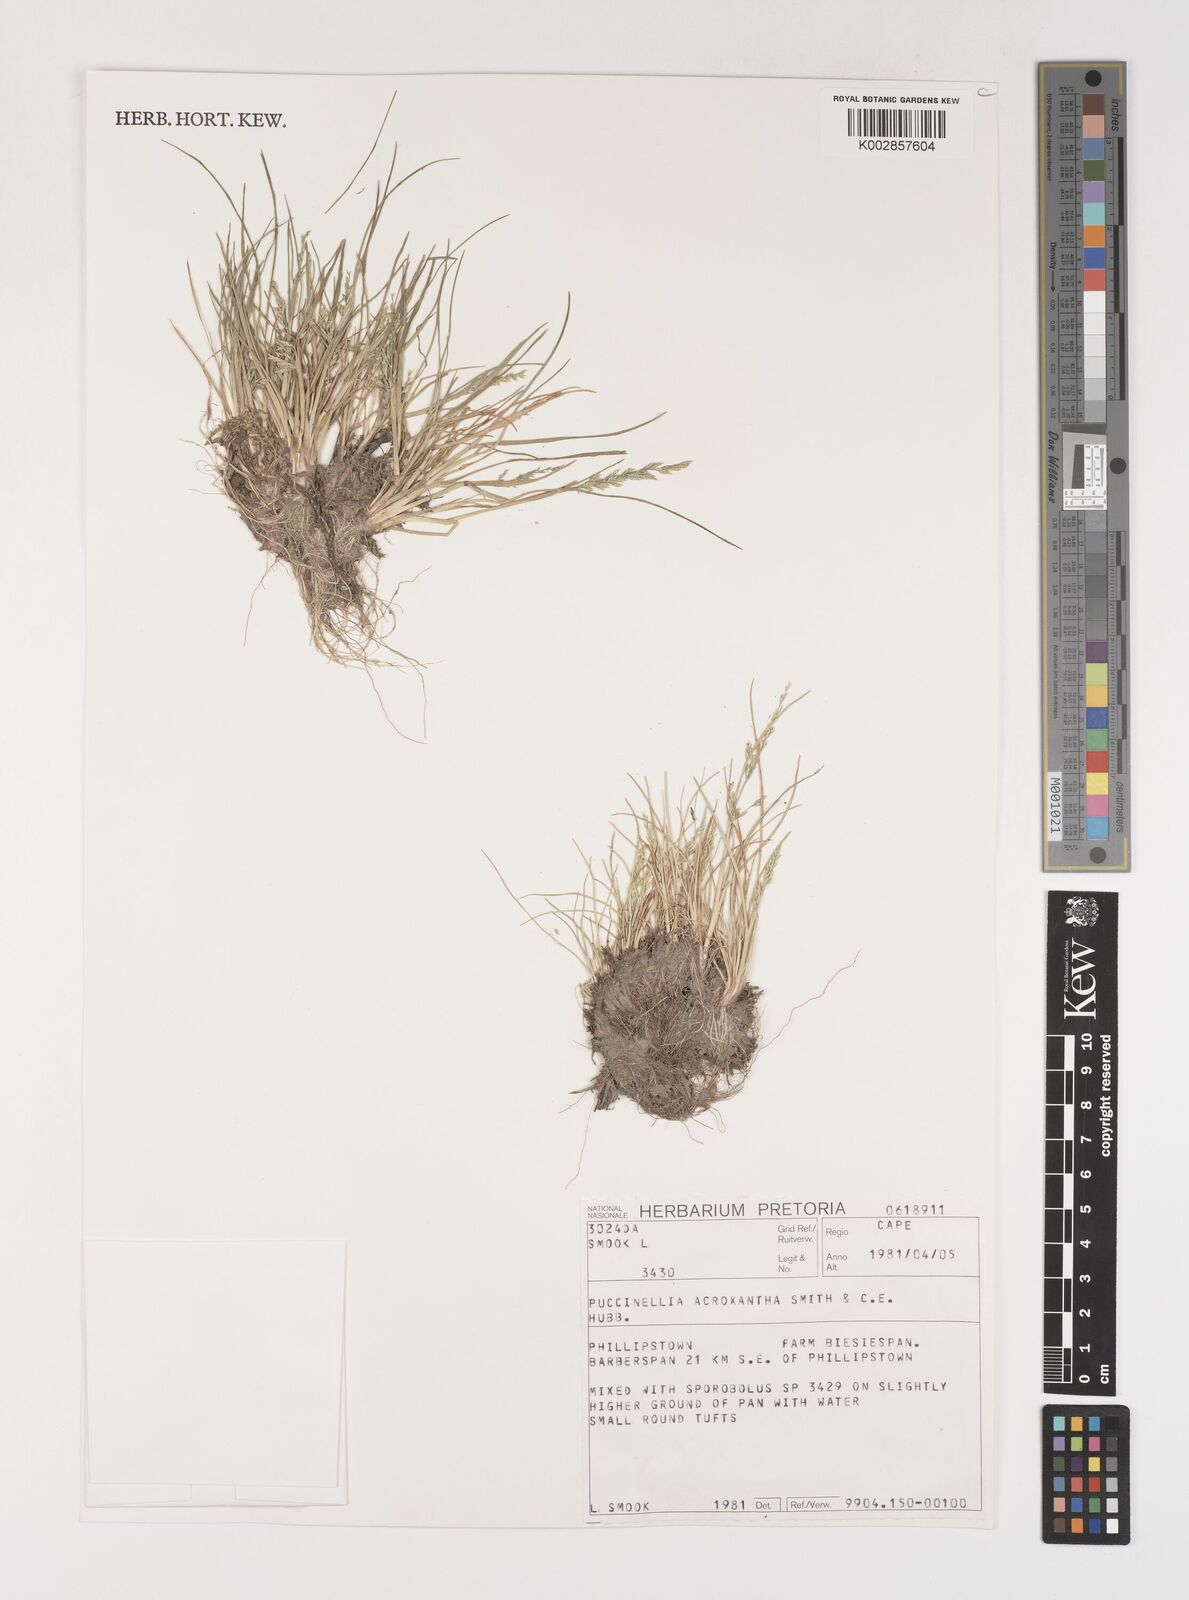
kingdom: Plantae
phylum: Tracheophyta
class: Liliopsida
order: Poales
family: Poaceae
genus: Puccinellia
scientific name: Puccinellia acroxantha
